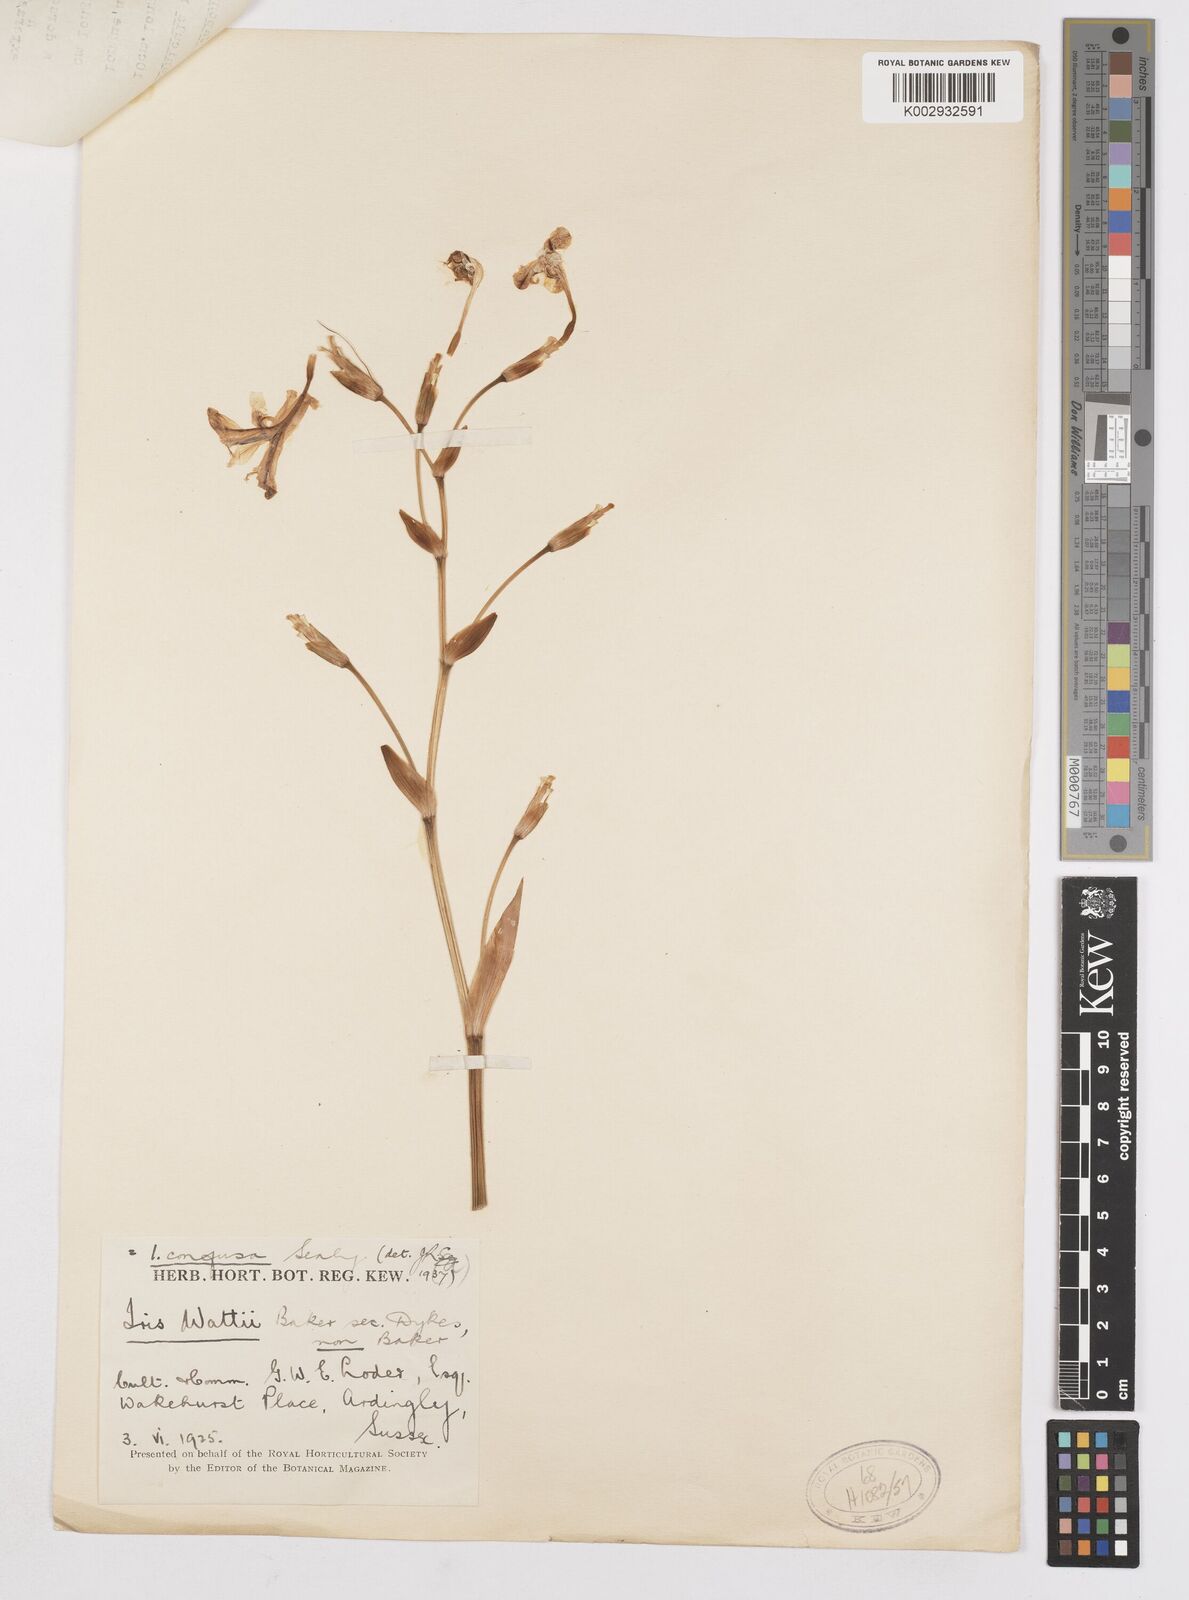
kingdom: Plantae
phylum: Tracheophyta
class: Liliopsida
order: Asparagales
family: Iridaceae
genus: Iris
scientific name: Iris
